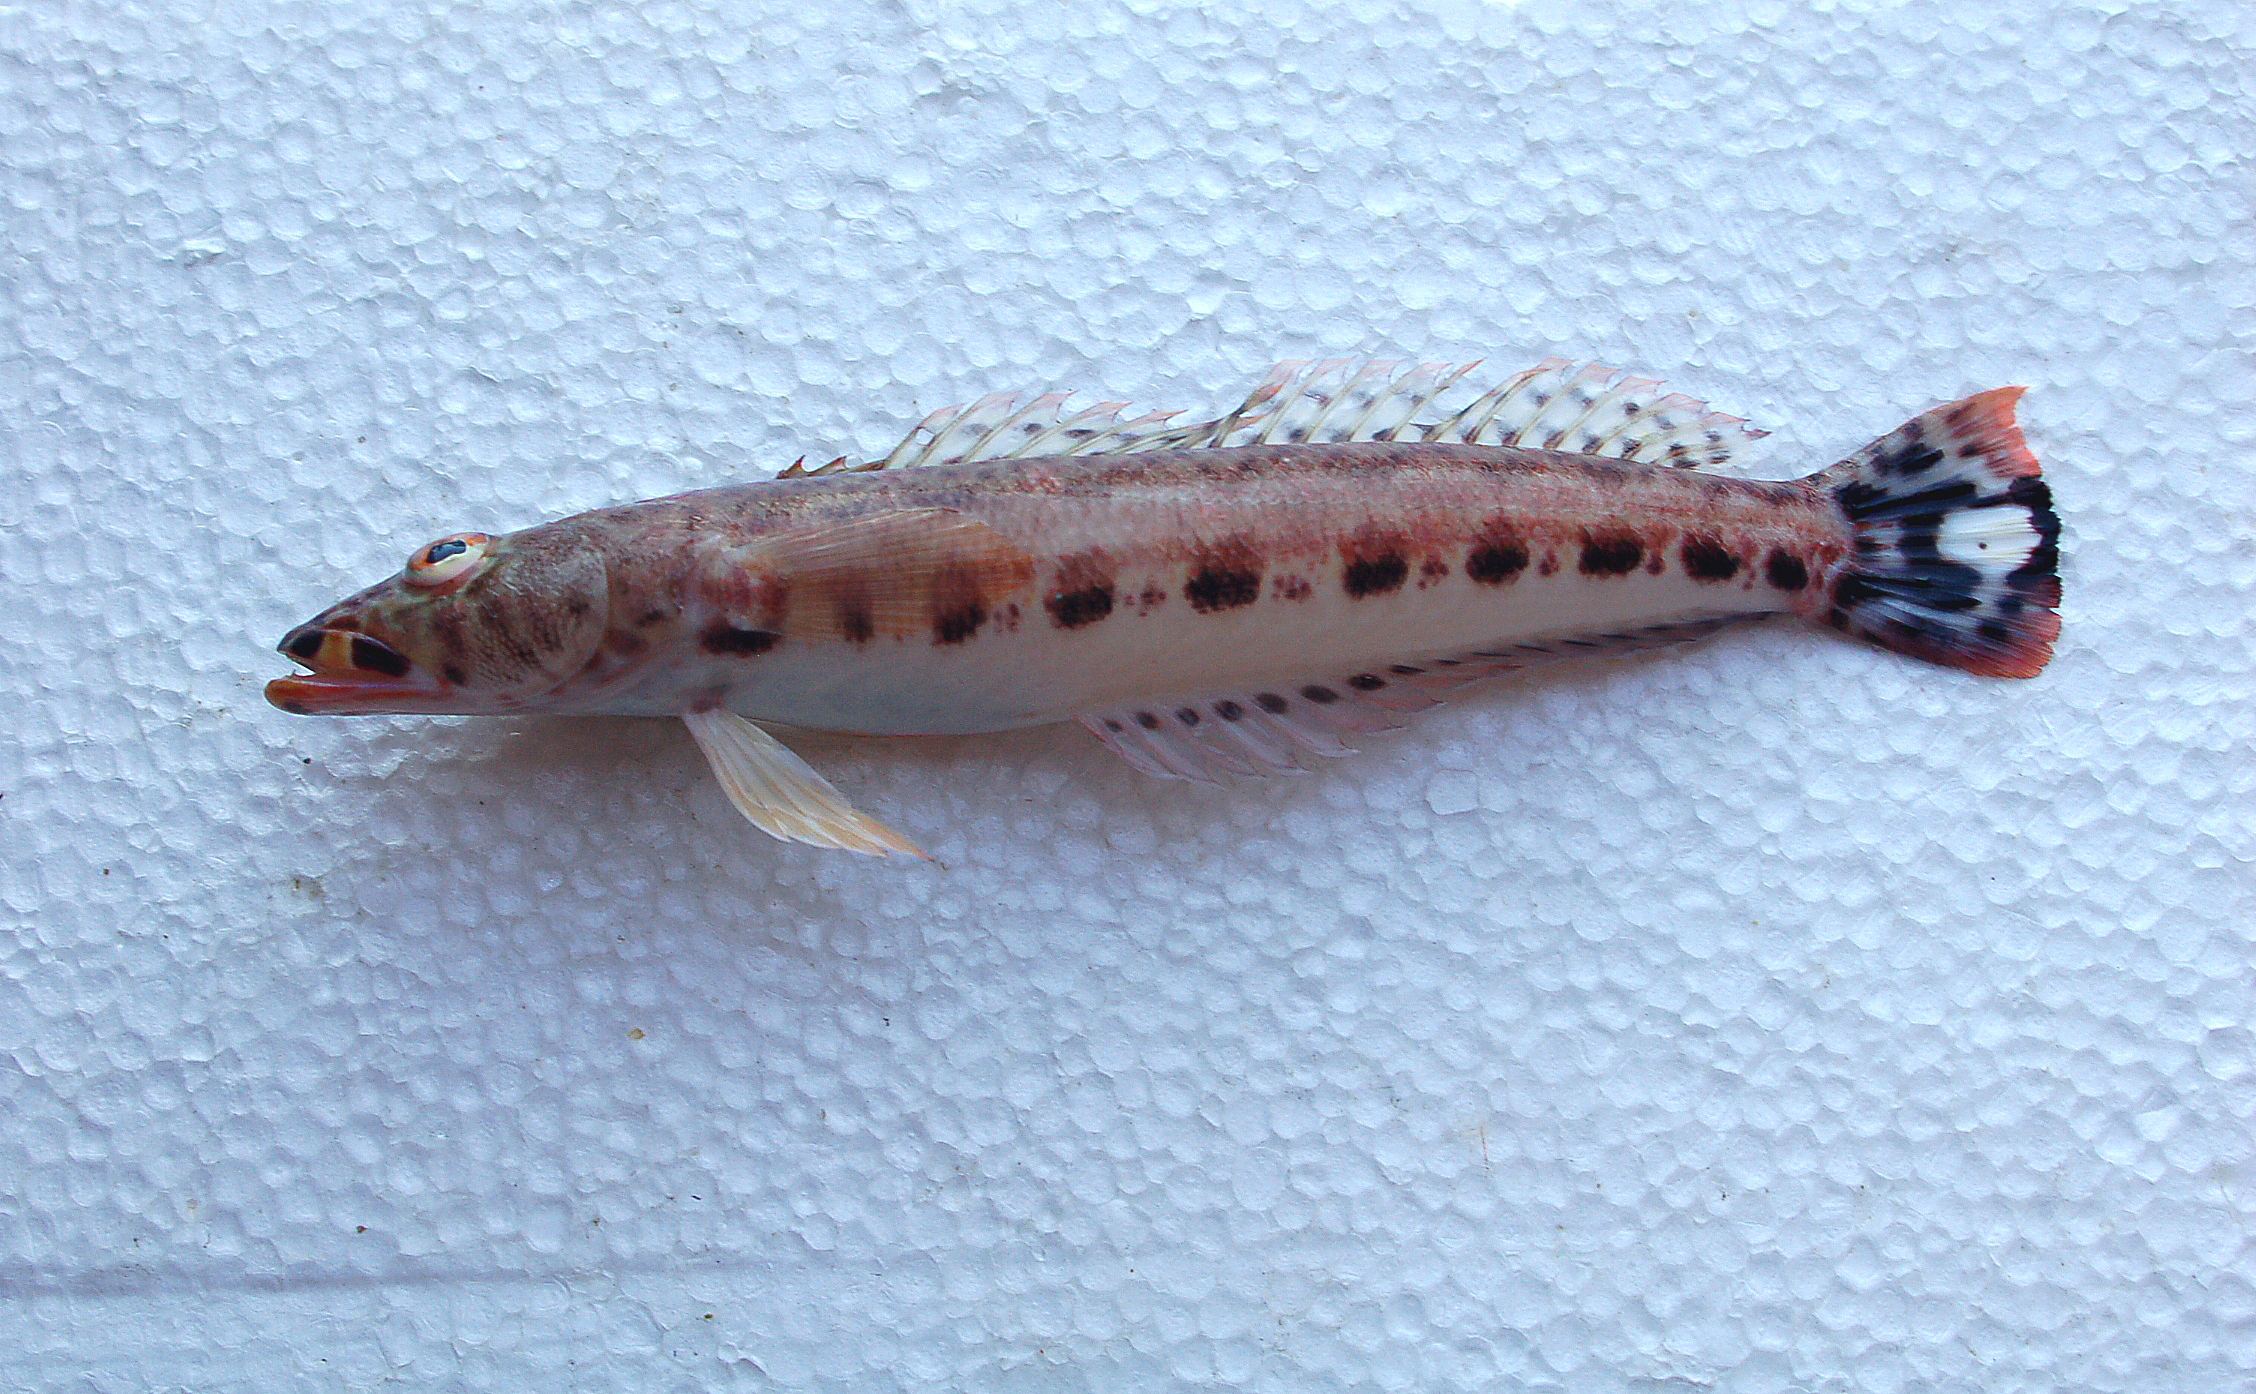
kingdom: Animalia
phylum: Chordata
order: Perciformes
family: Pinguipedidae
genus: Parapercis
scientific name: Parapercis albiventer
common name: Whitebelly sandperch
